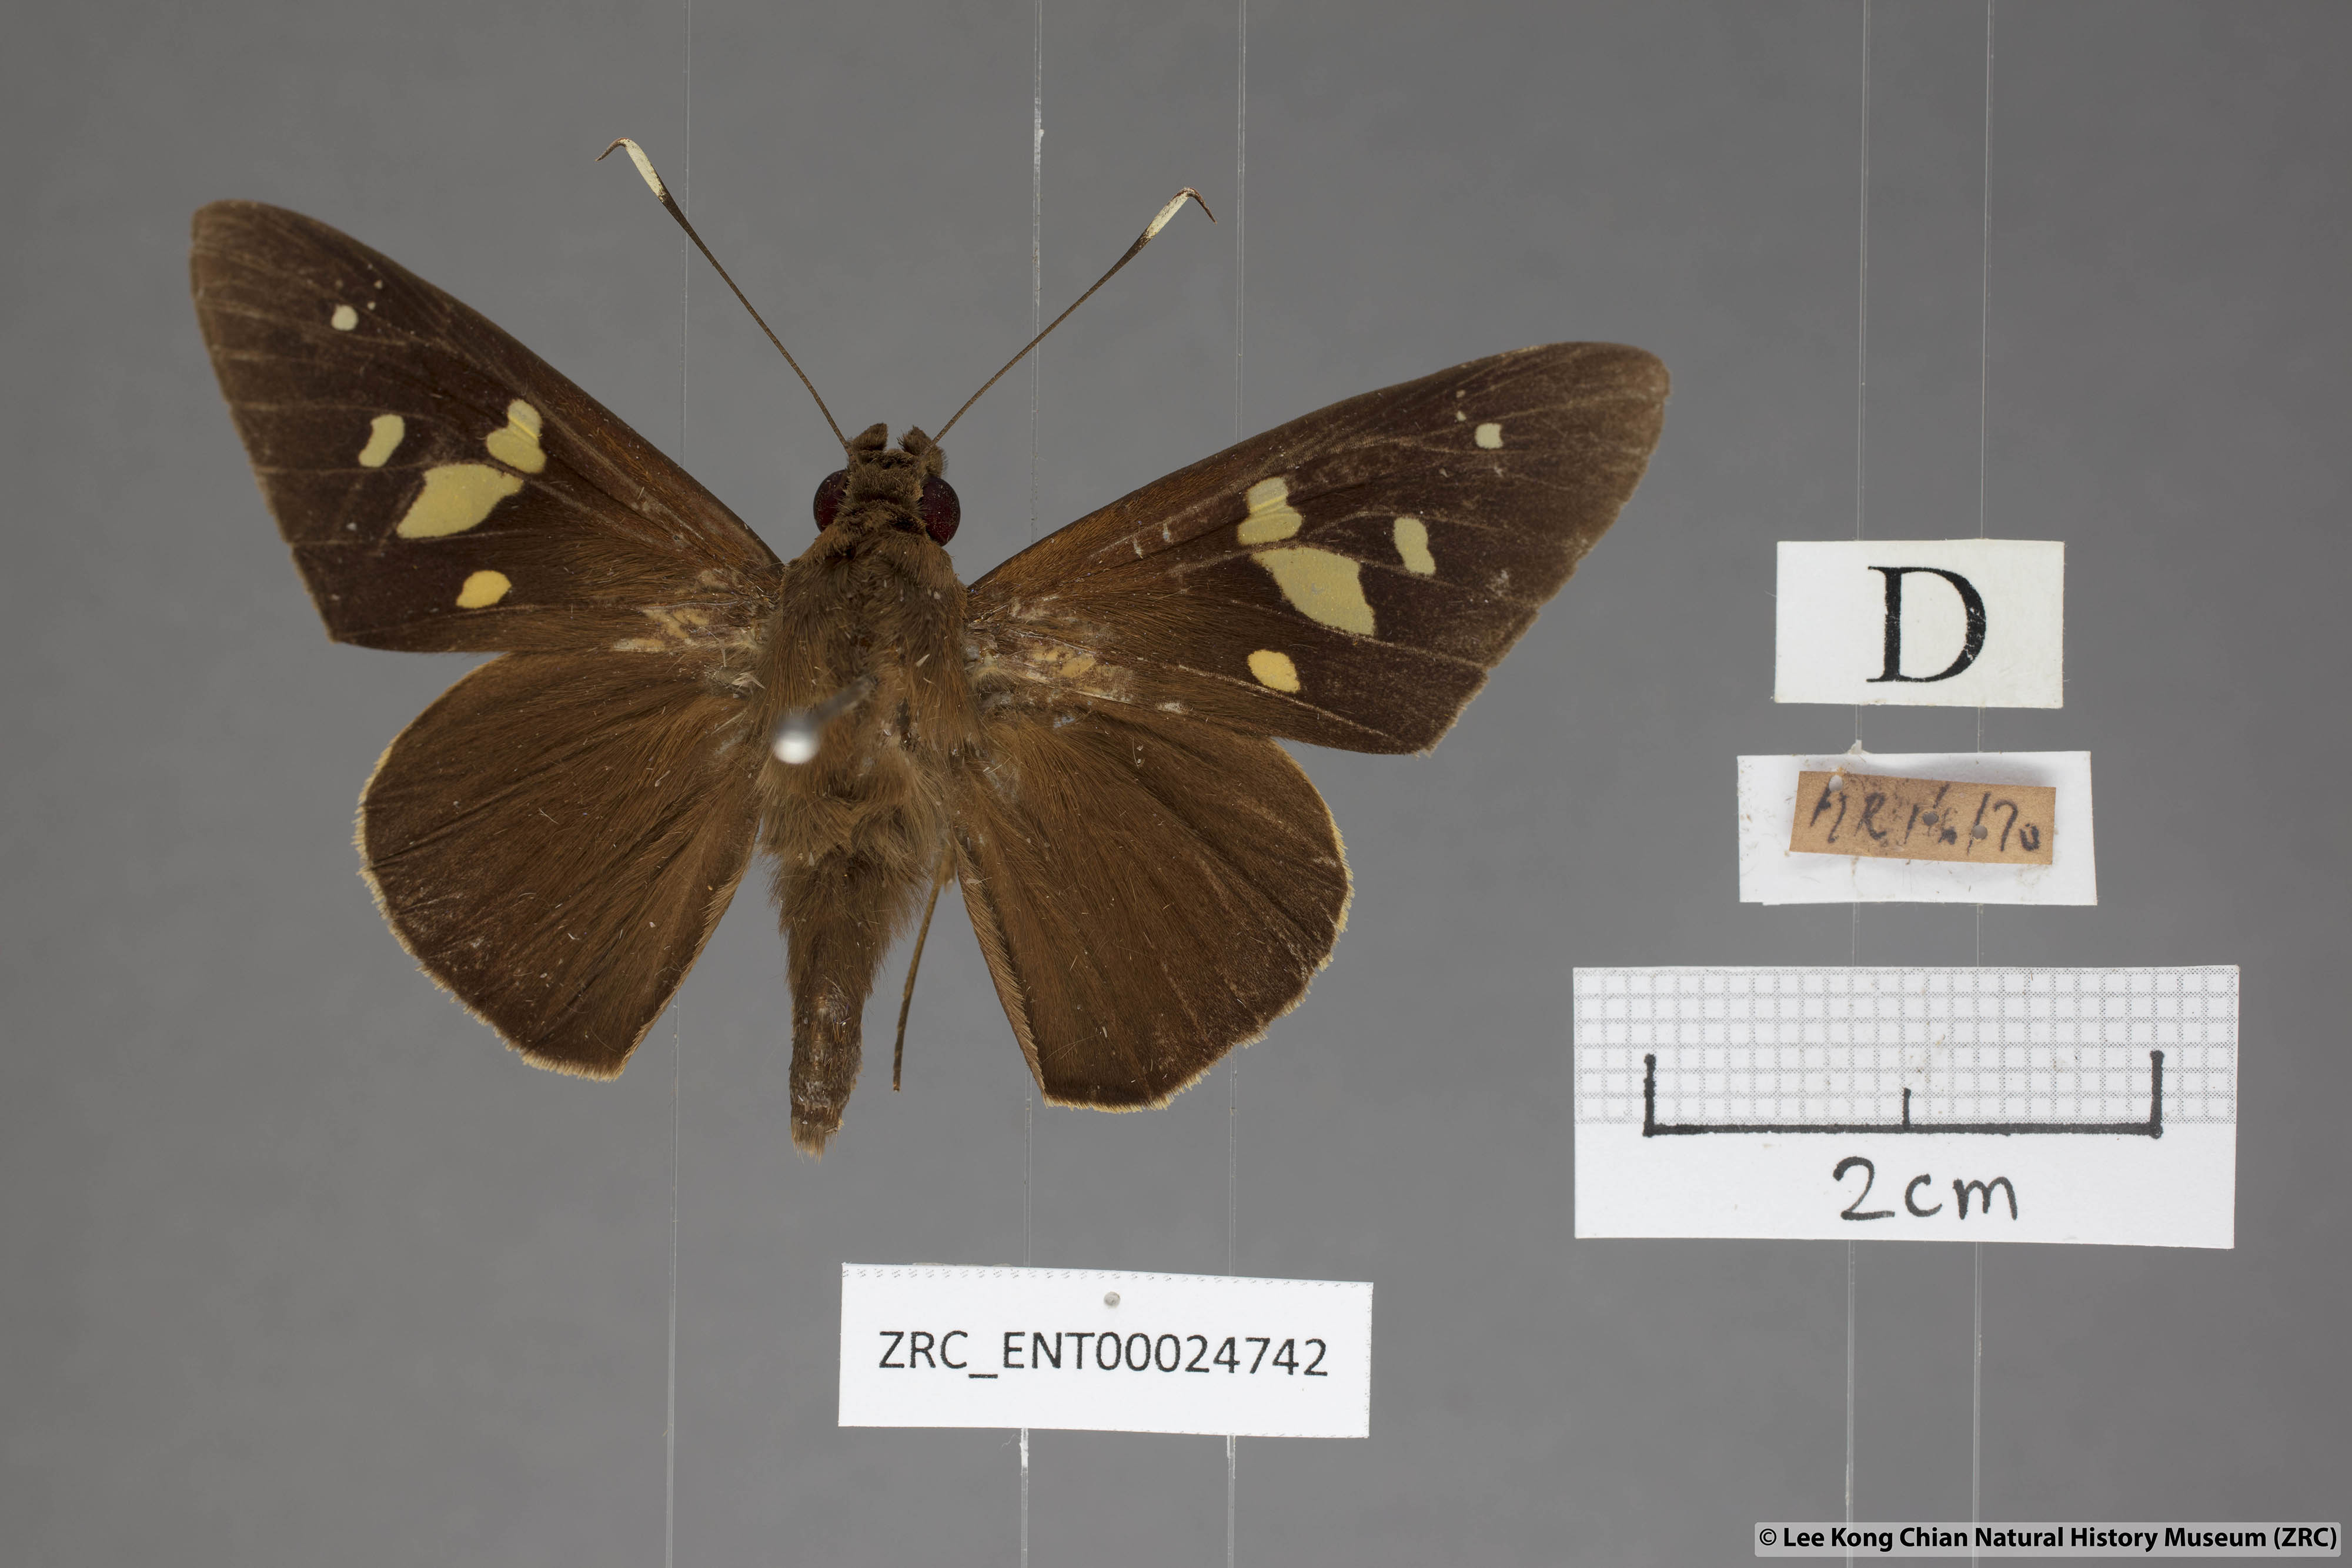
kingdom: Animalia
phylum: Arthropoda
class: Insecta
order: Lepidoptera
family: Hesperiidae
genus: Hidari
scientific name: Hidari doesoena
